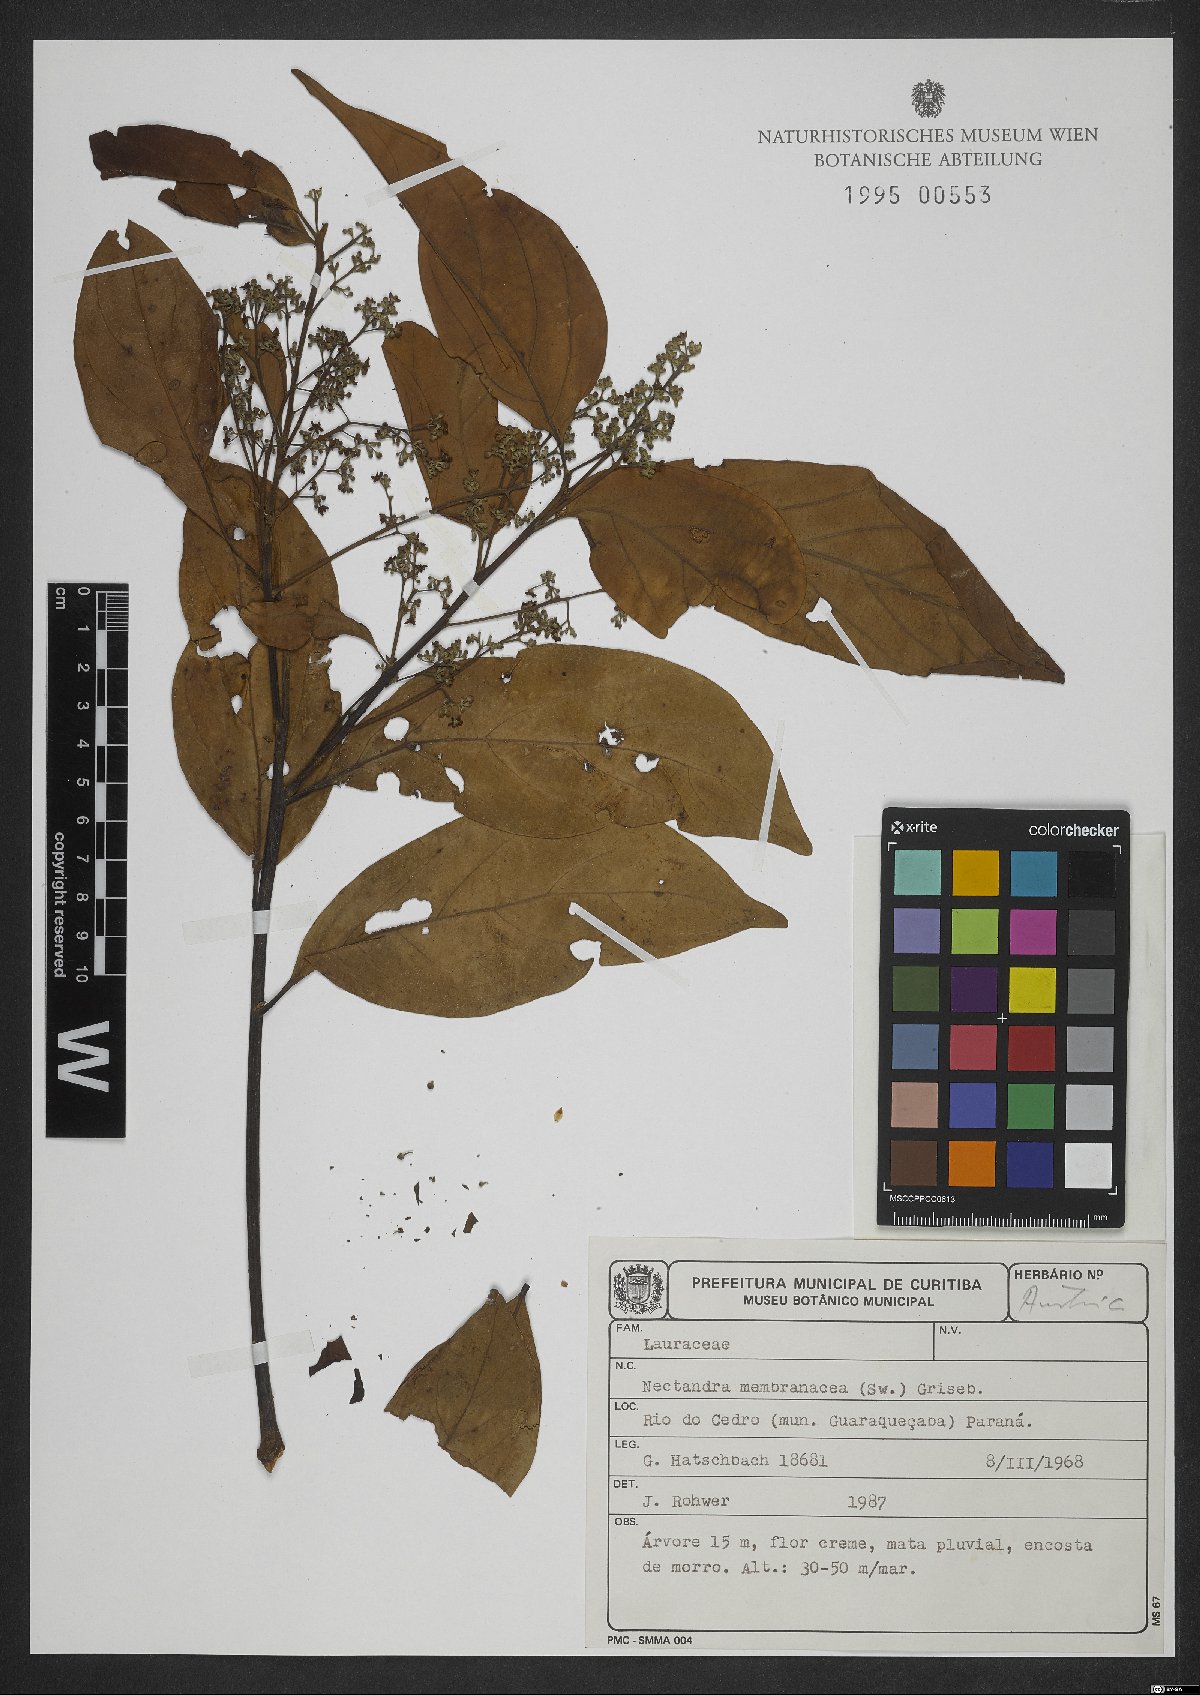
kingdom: Plantae
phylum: Tracheophyta
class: Magnoliopsida
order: Laurales
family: Lauraceae
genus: Nectandra
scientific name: Nectandra membranacea
